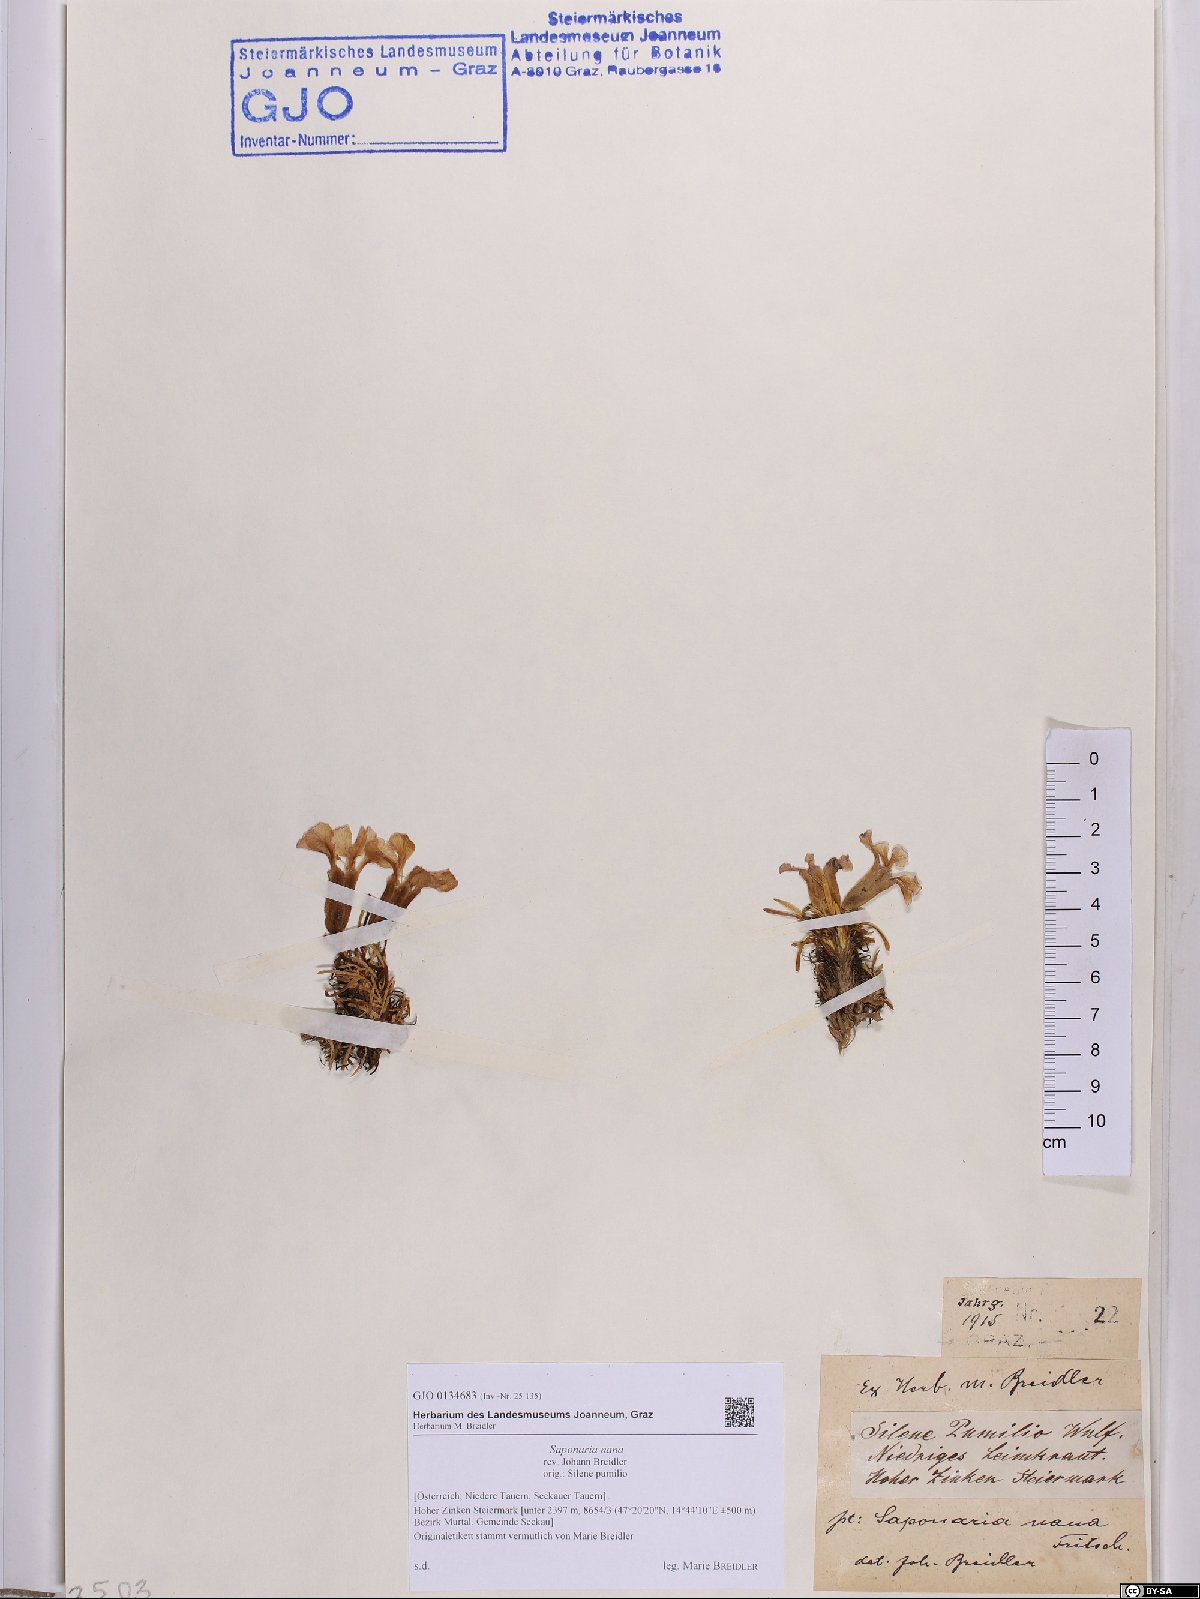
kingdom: Plantae
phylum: Tracheophyta
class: Magnoliopsida
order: Caryophyllales
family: Caryophyllaceae
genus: Saponaria
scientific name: Saponaria pumila
